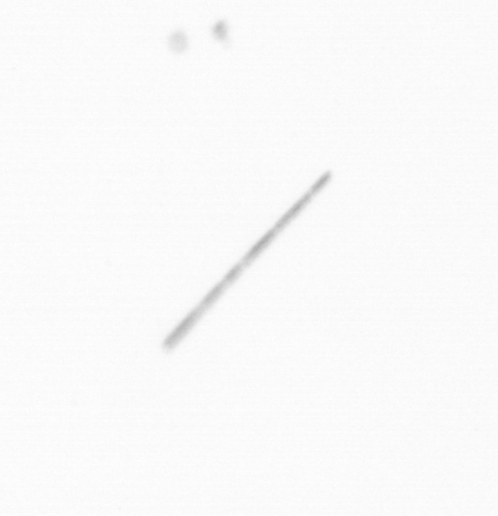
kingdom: Chromista
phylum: Ochrophyta
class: Bacillariophyceae
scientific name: Bacillariophyceae
